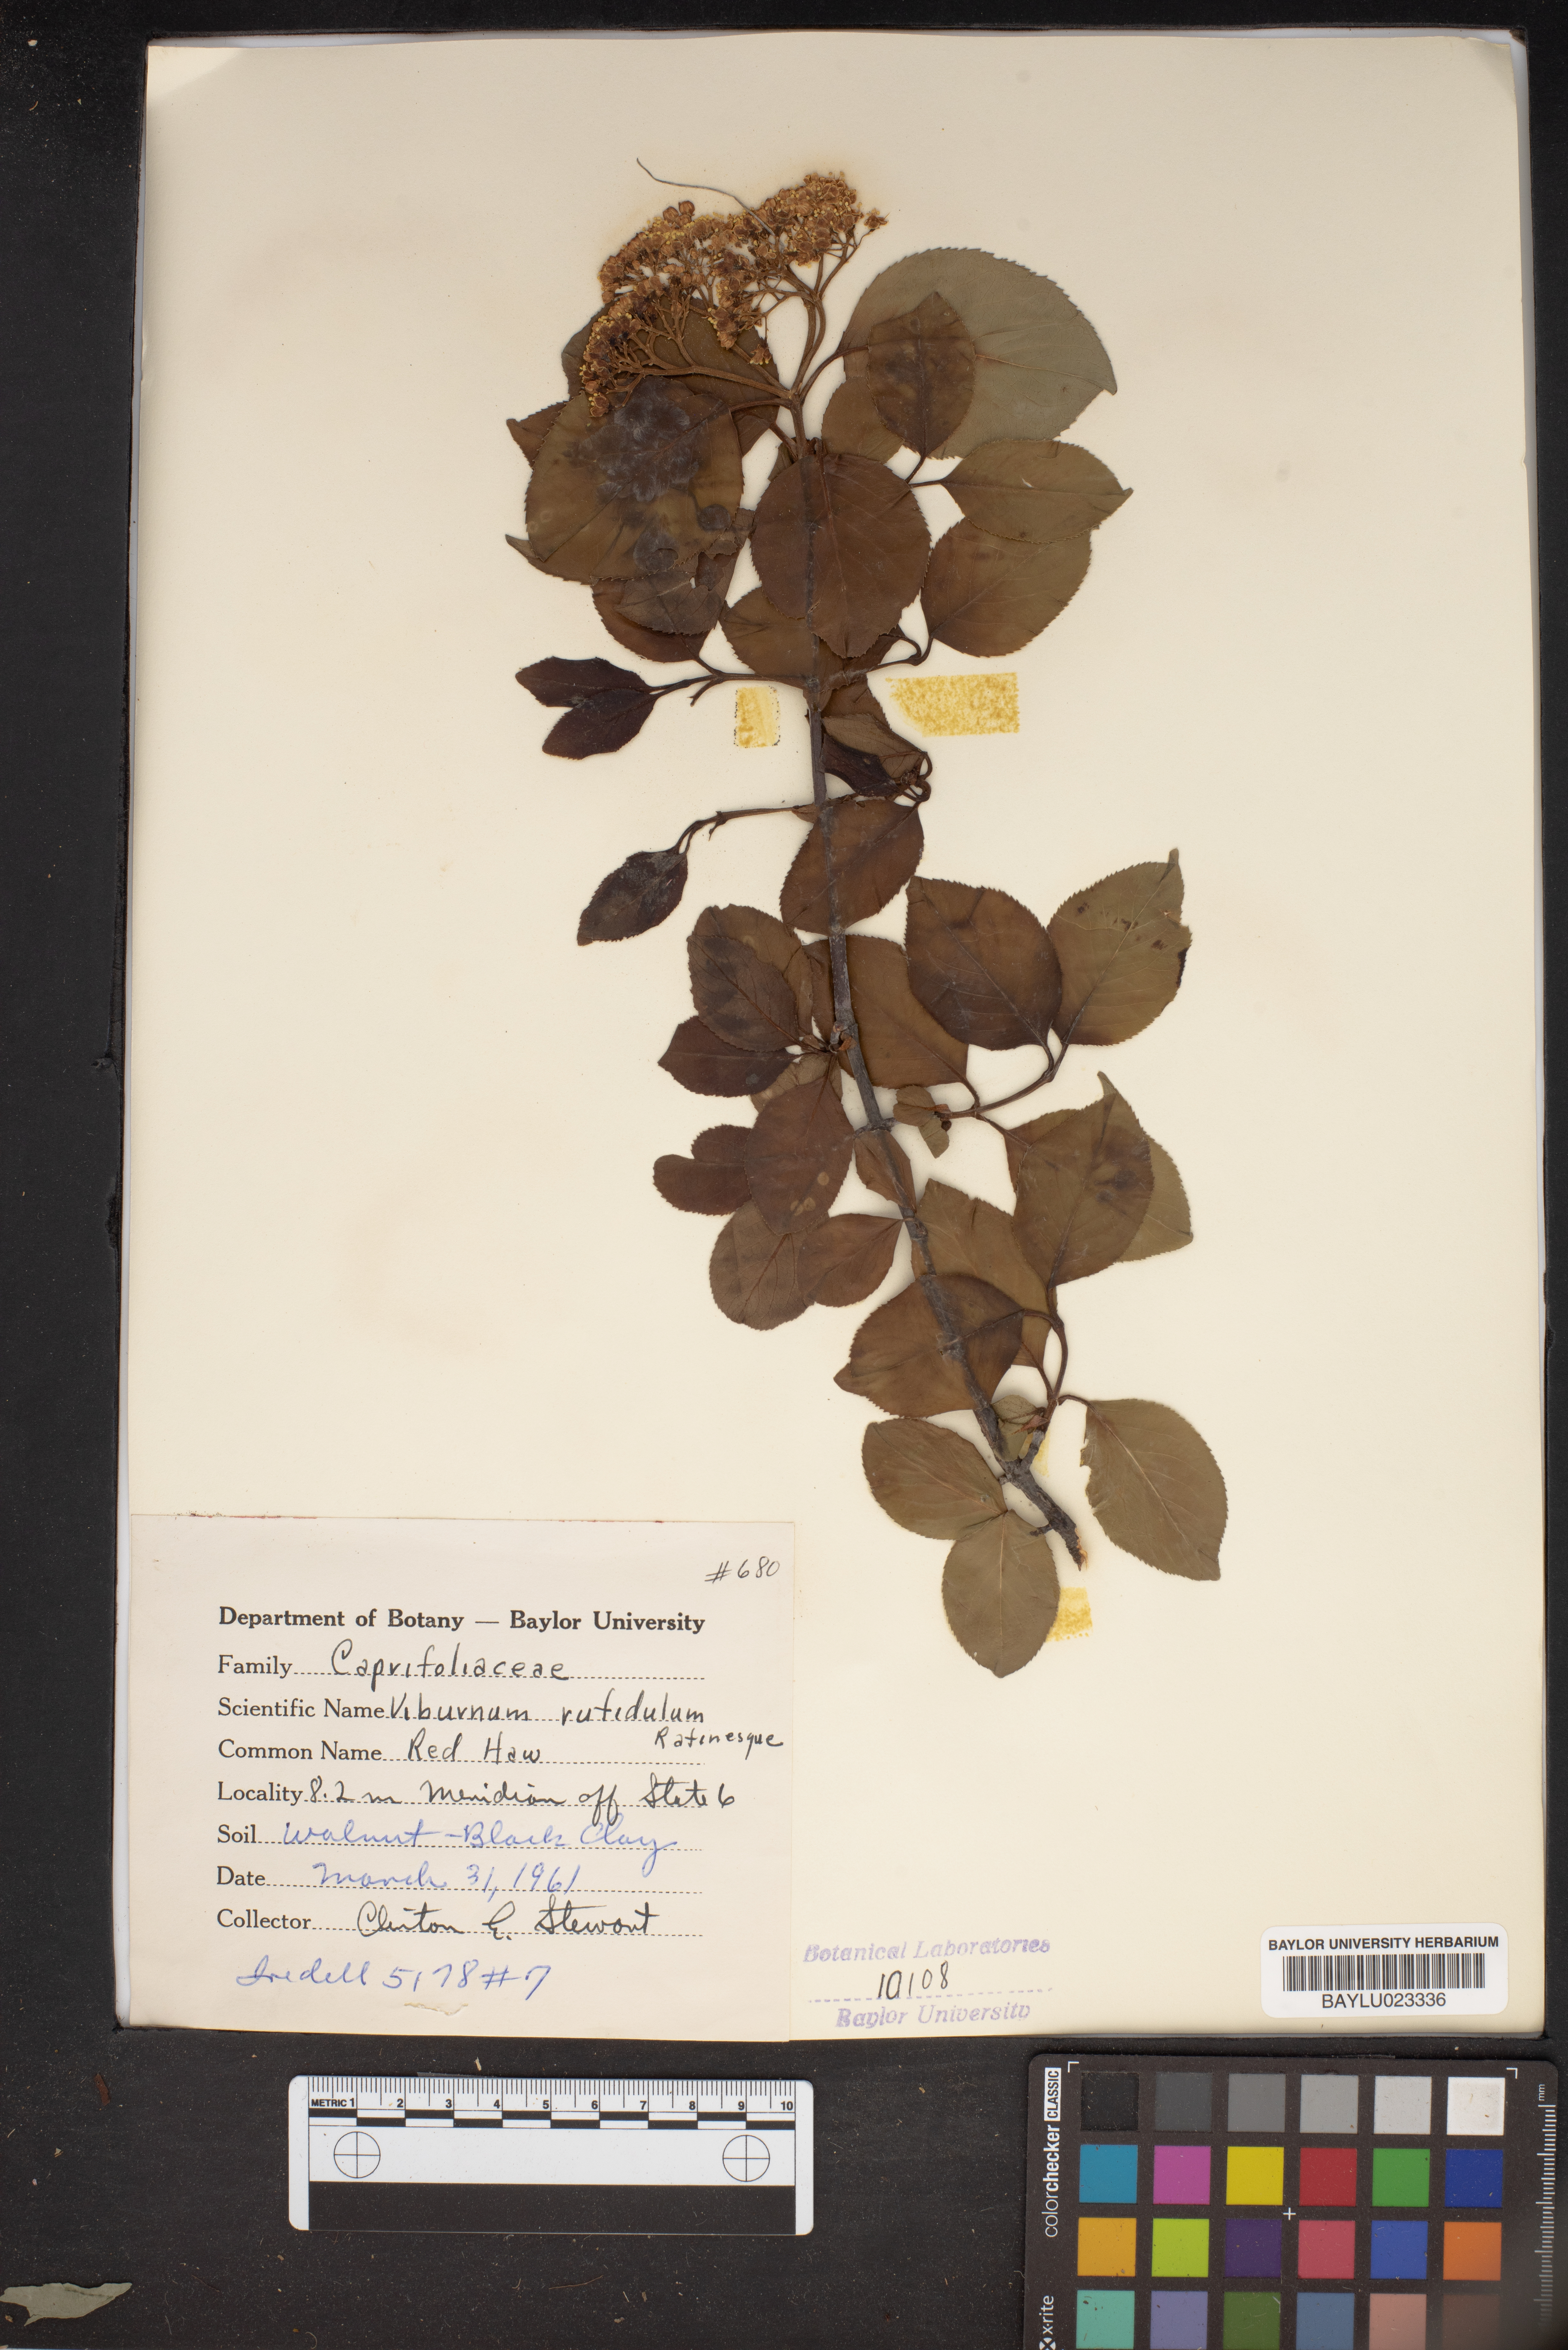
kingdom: Plantae
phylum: Tracheophyta
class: Magnoliopsida
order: Dipsacales
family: Viburnaceae
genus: Viburnum
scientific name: Viburnum rufidulum
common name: Blue haw
